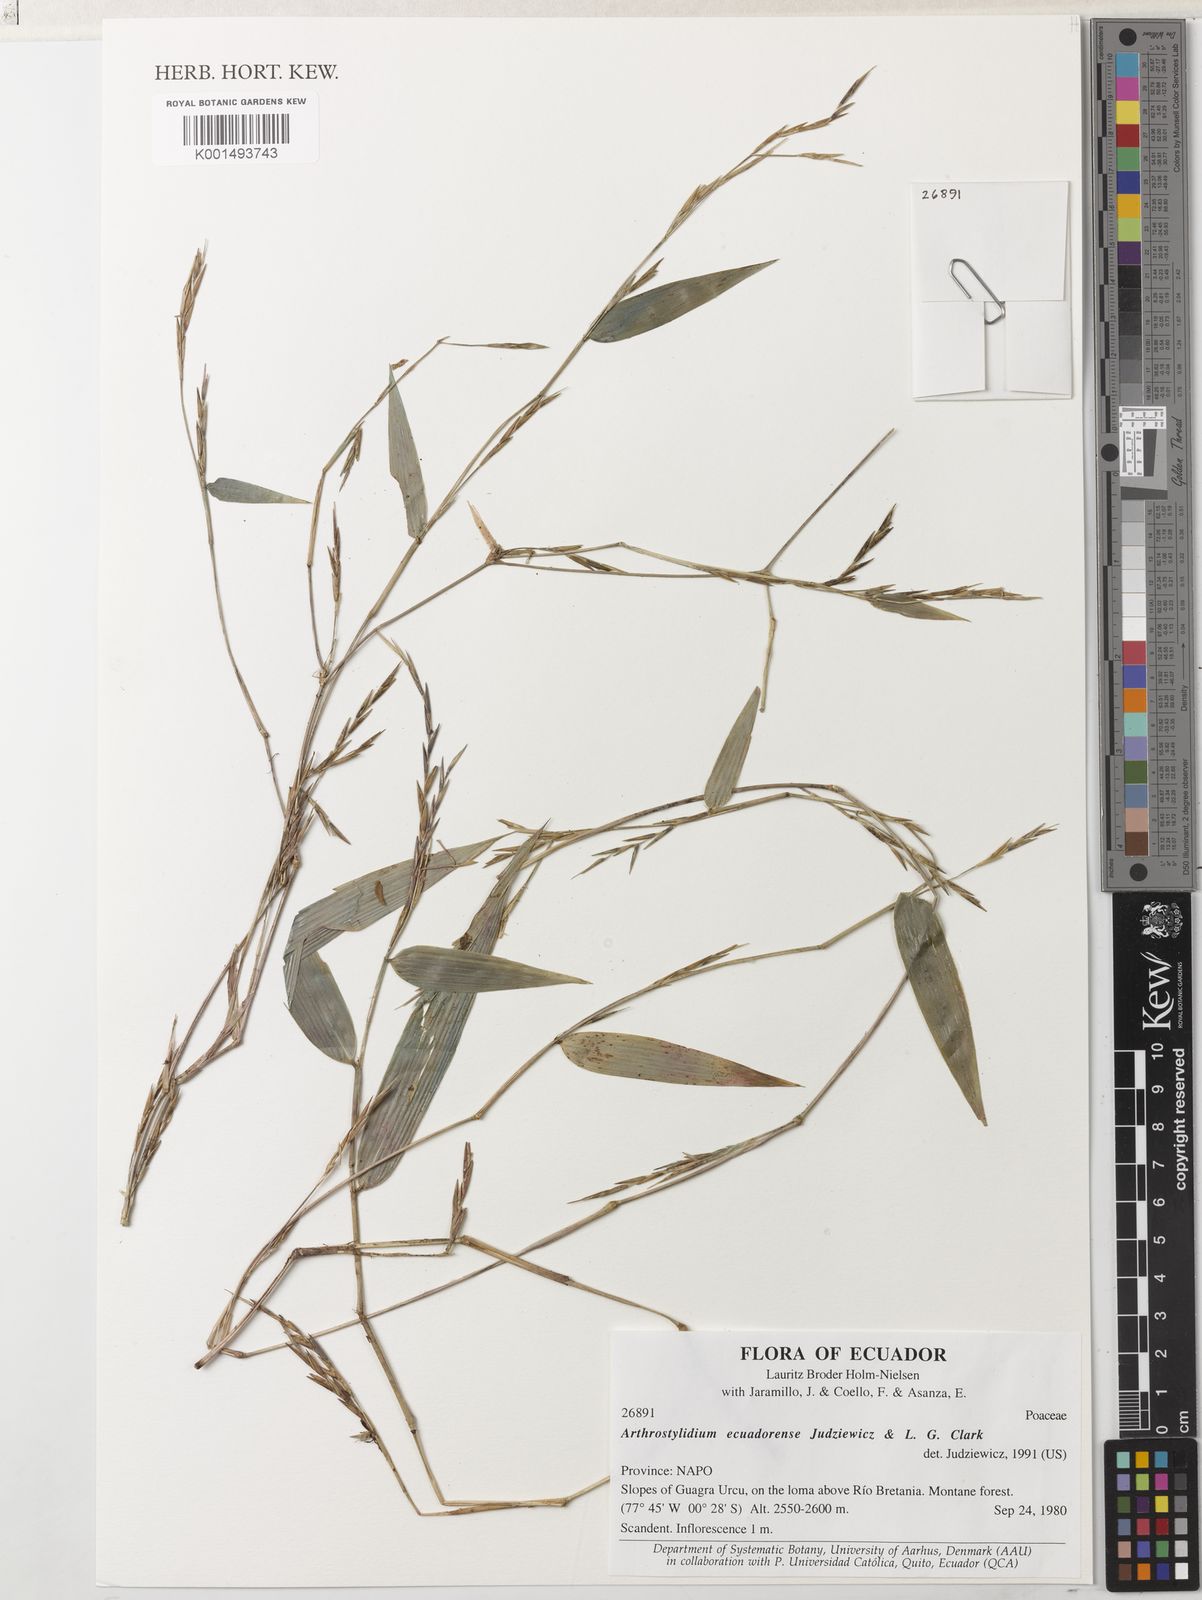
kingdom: Plantae
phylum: Tracheophyta
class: Liliopsida
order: Poales
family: Poaceae
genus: Aulonemiella
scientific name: Aulonemiella ecuadorensis
